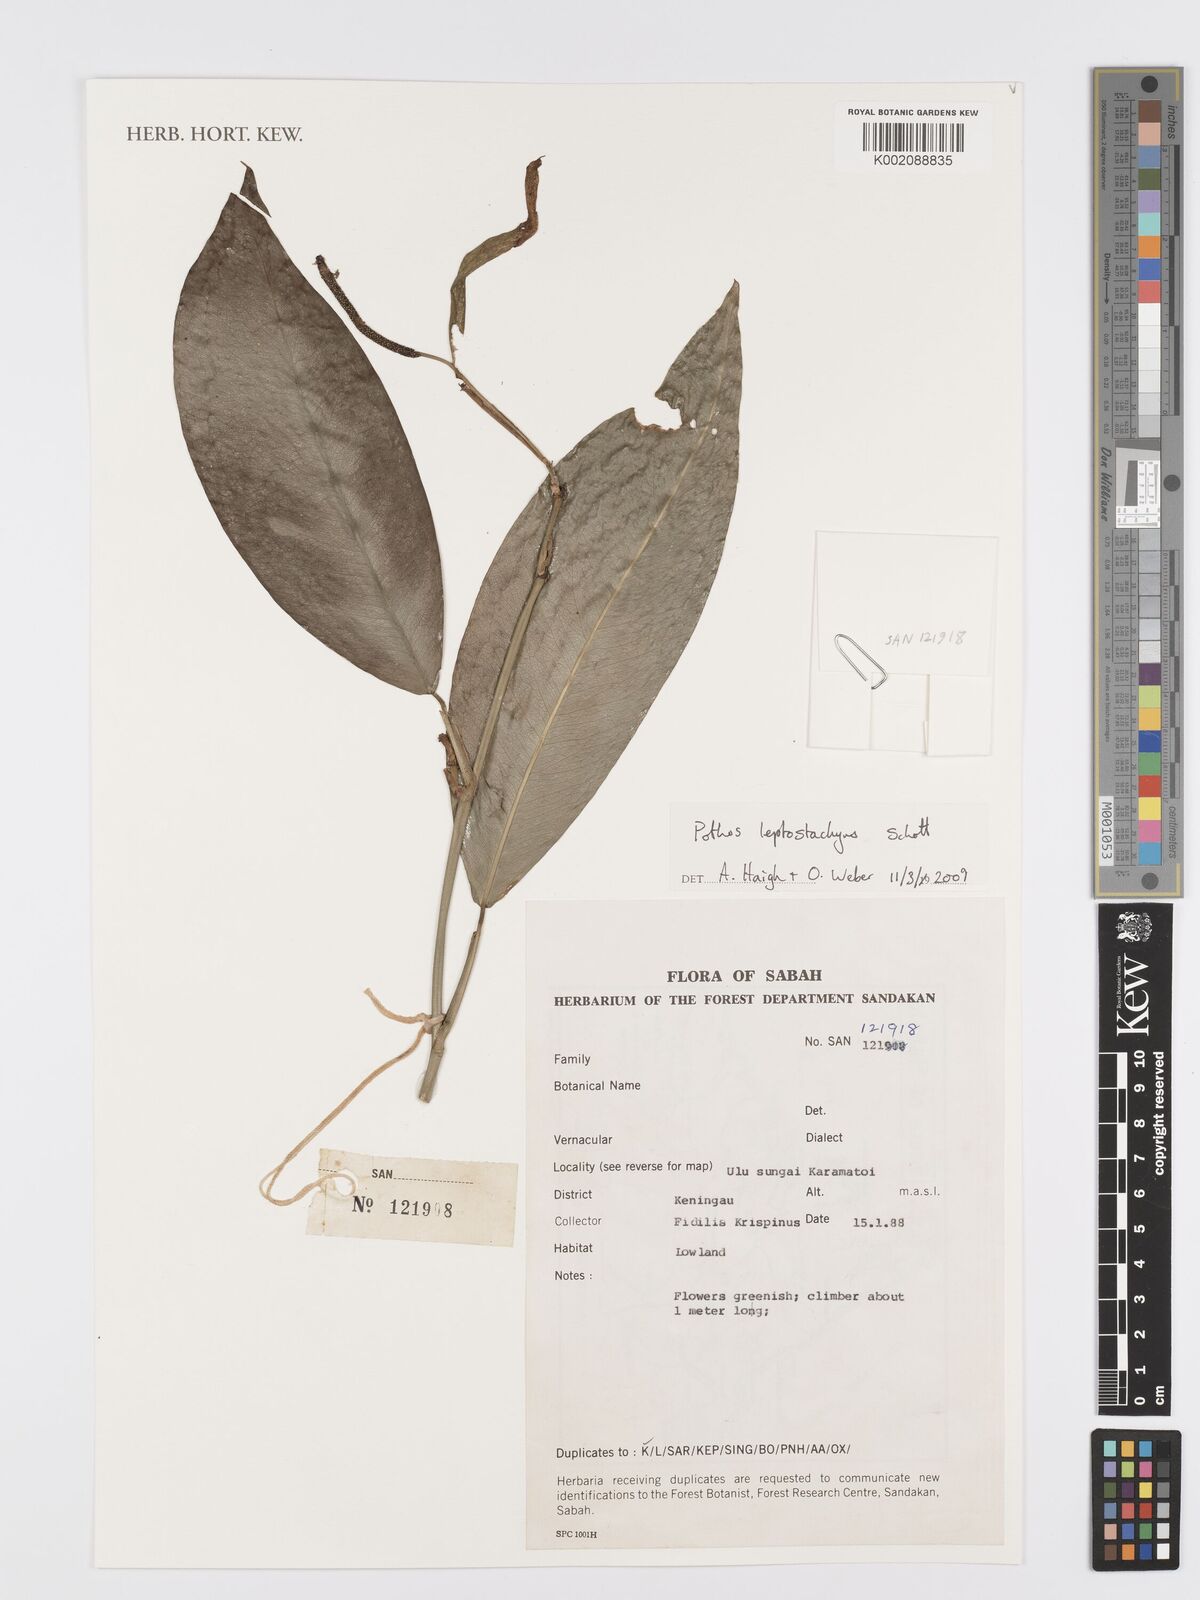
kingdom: Plantae
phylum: Tracheophyta
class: Liliopsida
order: Alismatales
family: Araceae
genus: Pothos
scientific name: Pothos leptostachyus
